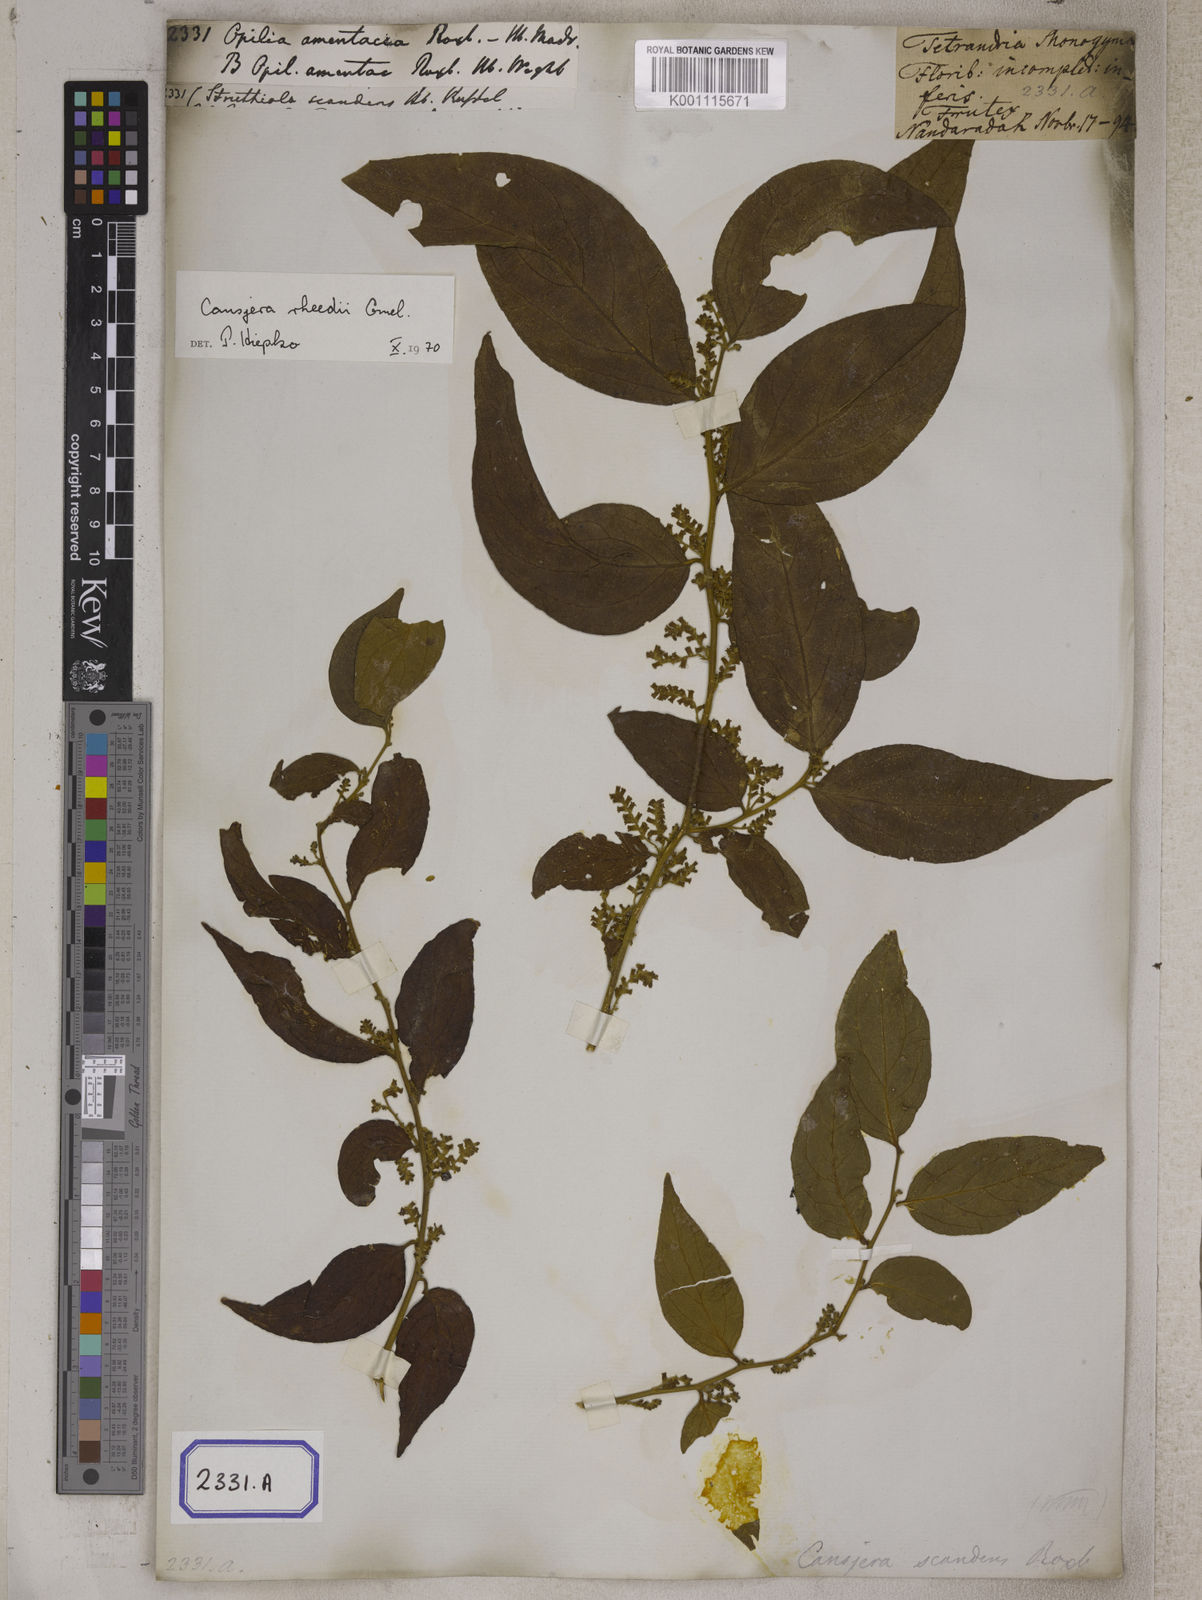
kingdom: Plantae
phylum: Tracheophyta
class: Magnoliopsida
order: Santalales
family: Opiliaceae
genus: Opilia
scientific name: Opilia amentacea
